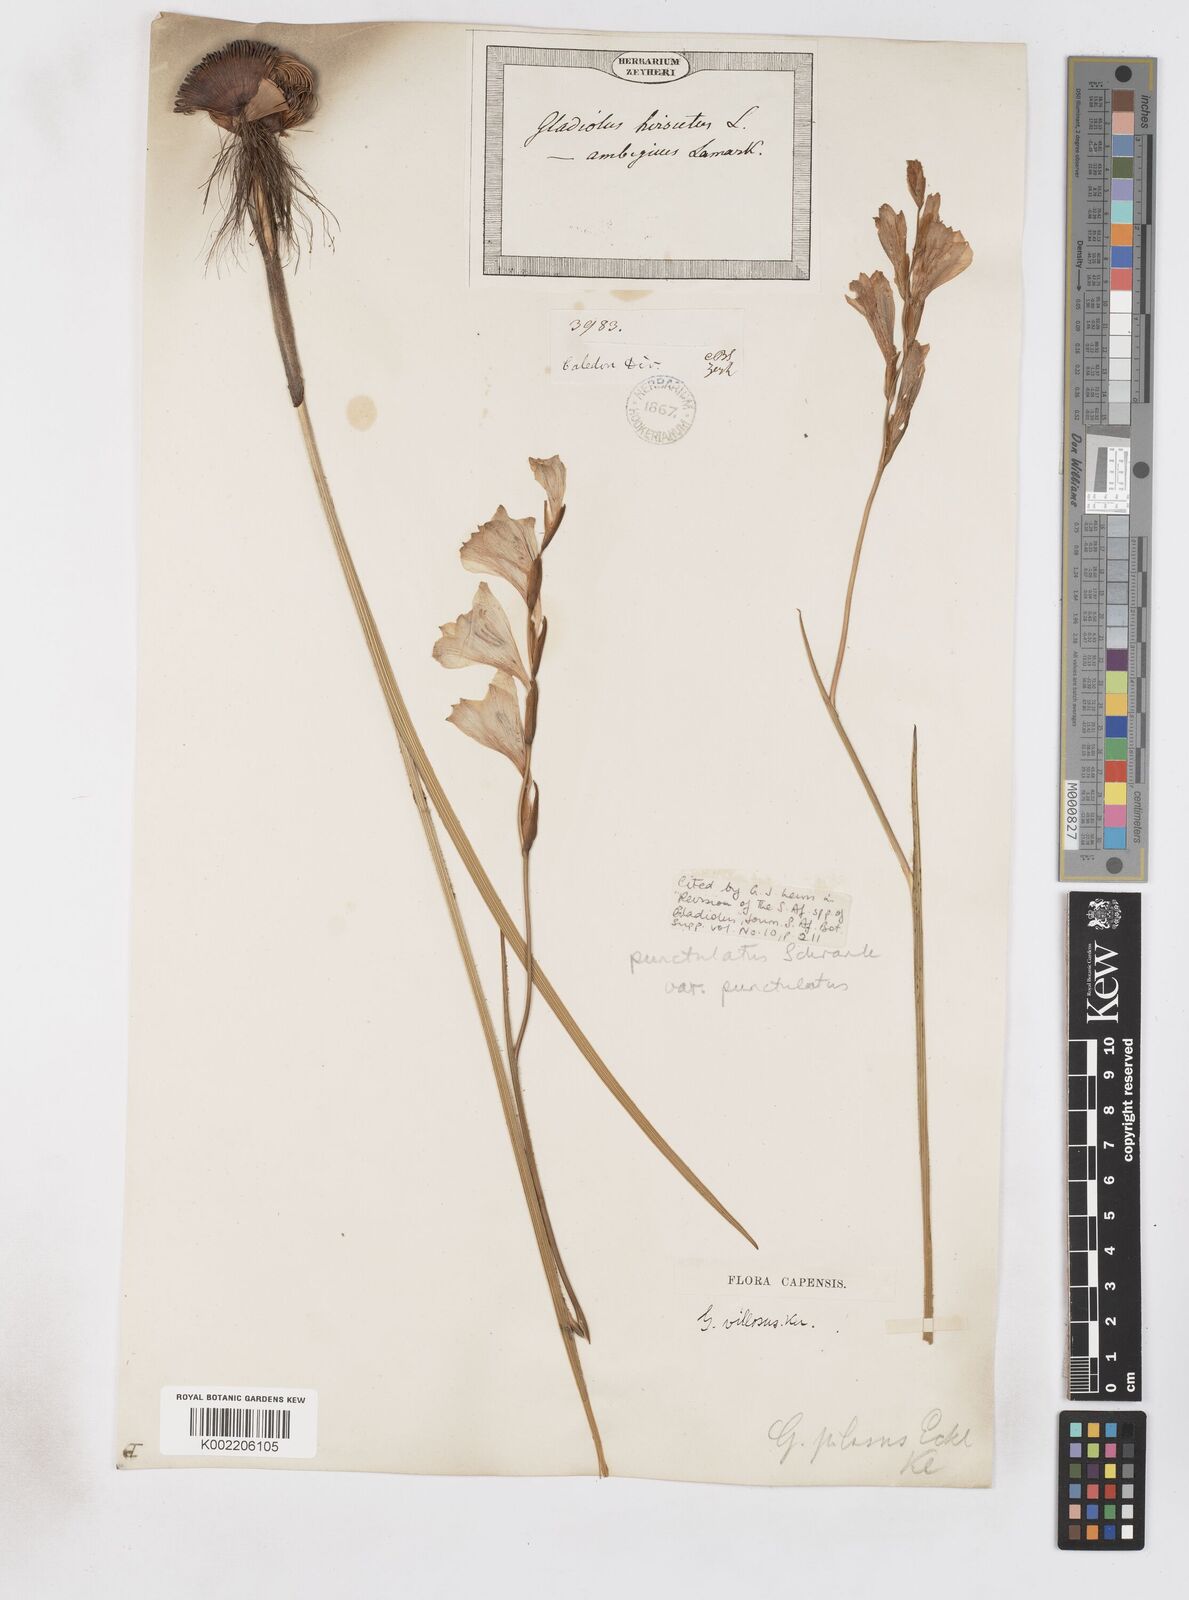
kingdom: Plantae
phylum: Tracheophyta
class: Liliopsida
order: Asparagales
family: Iridaceae
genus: Gladiolus
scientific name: Gladiolus hirsutus
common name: Small pink afrikaner
